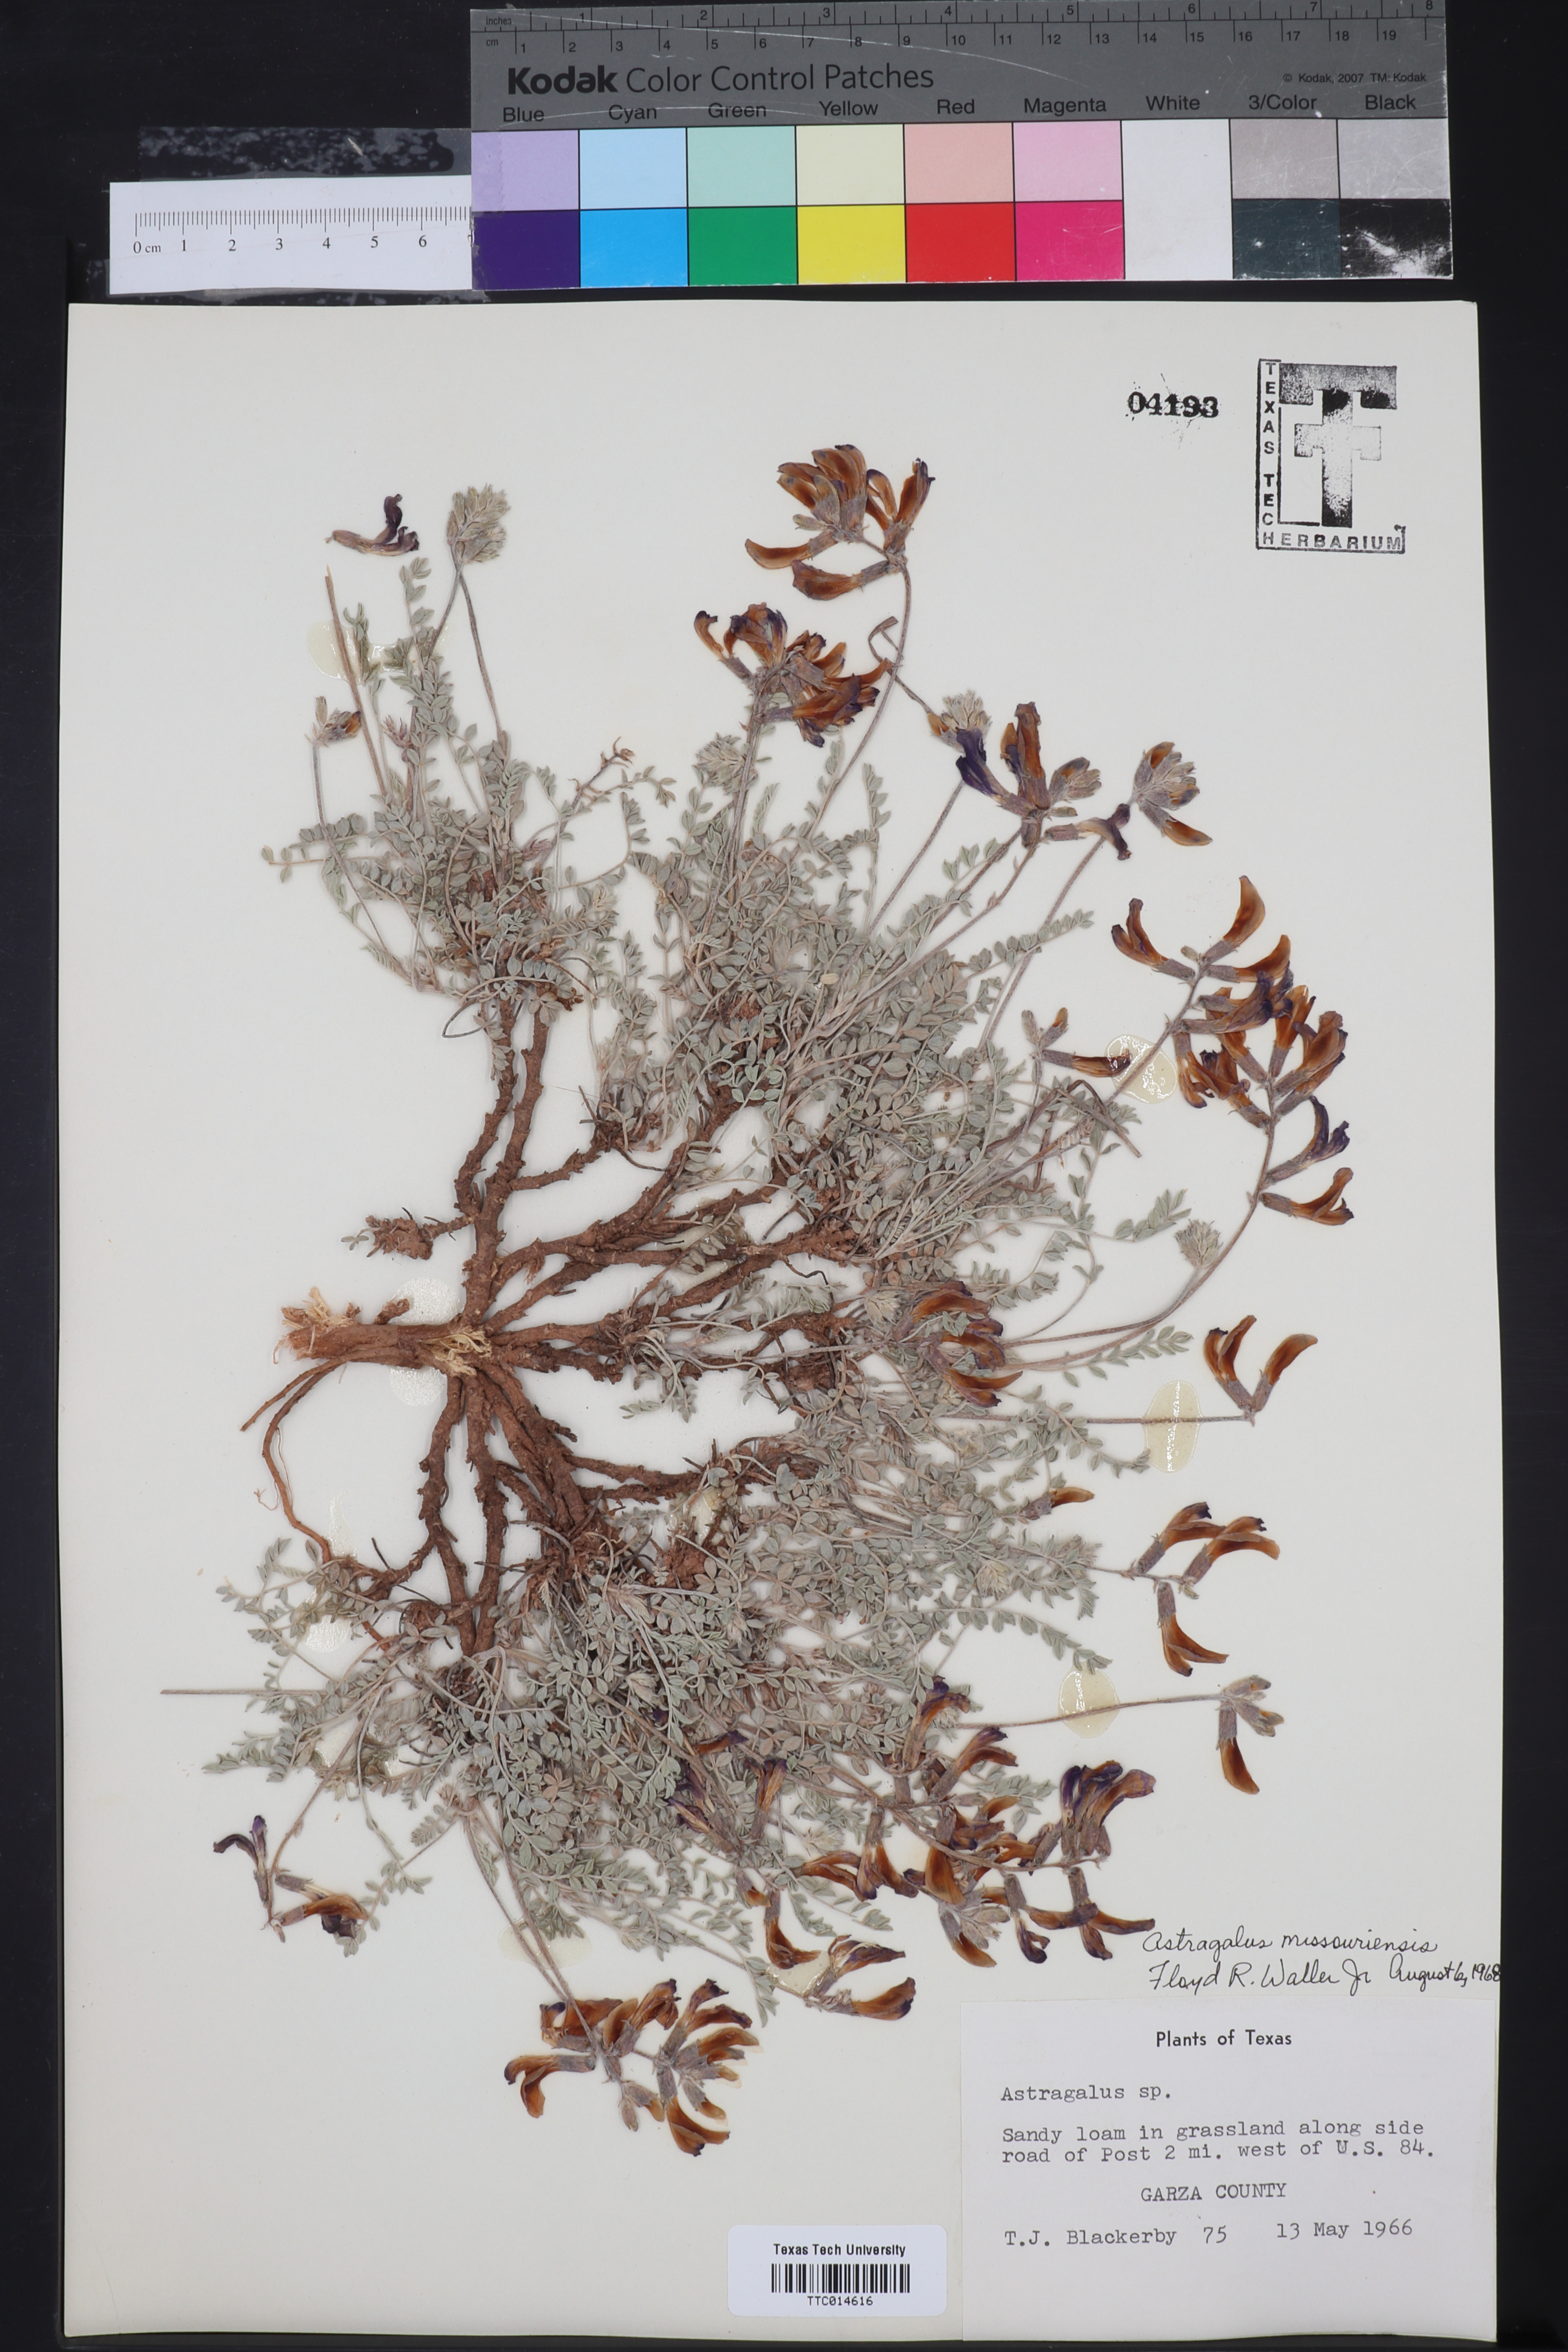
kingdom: Plantae
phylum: Tracheophyta
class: Magnoliopsida
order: Fabales
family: Fabaceae
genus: Astragalus
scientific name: Astragalus missouriensis
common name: Missouri milk-vetch
